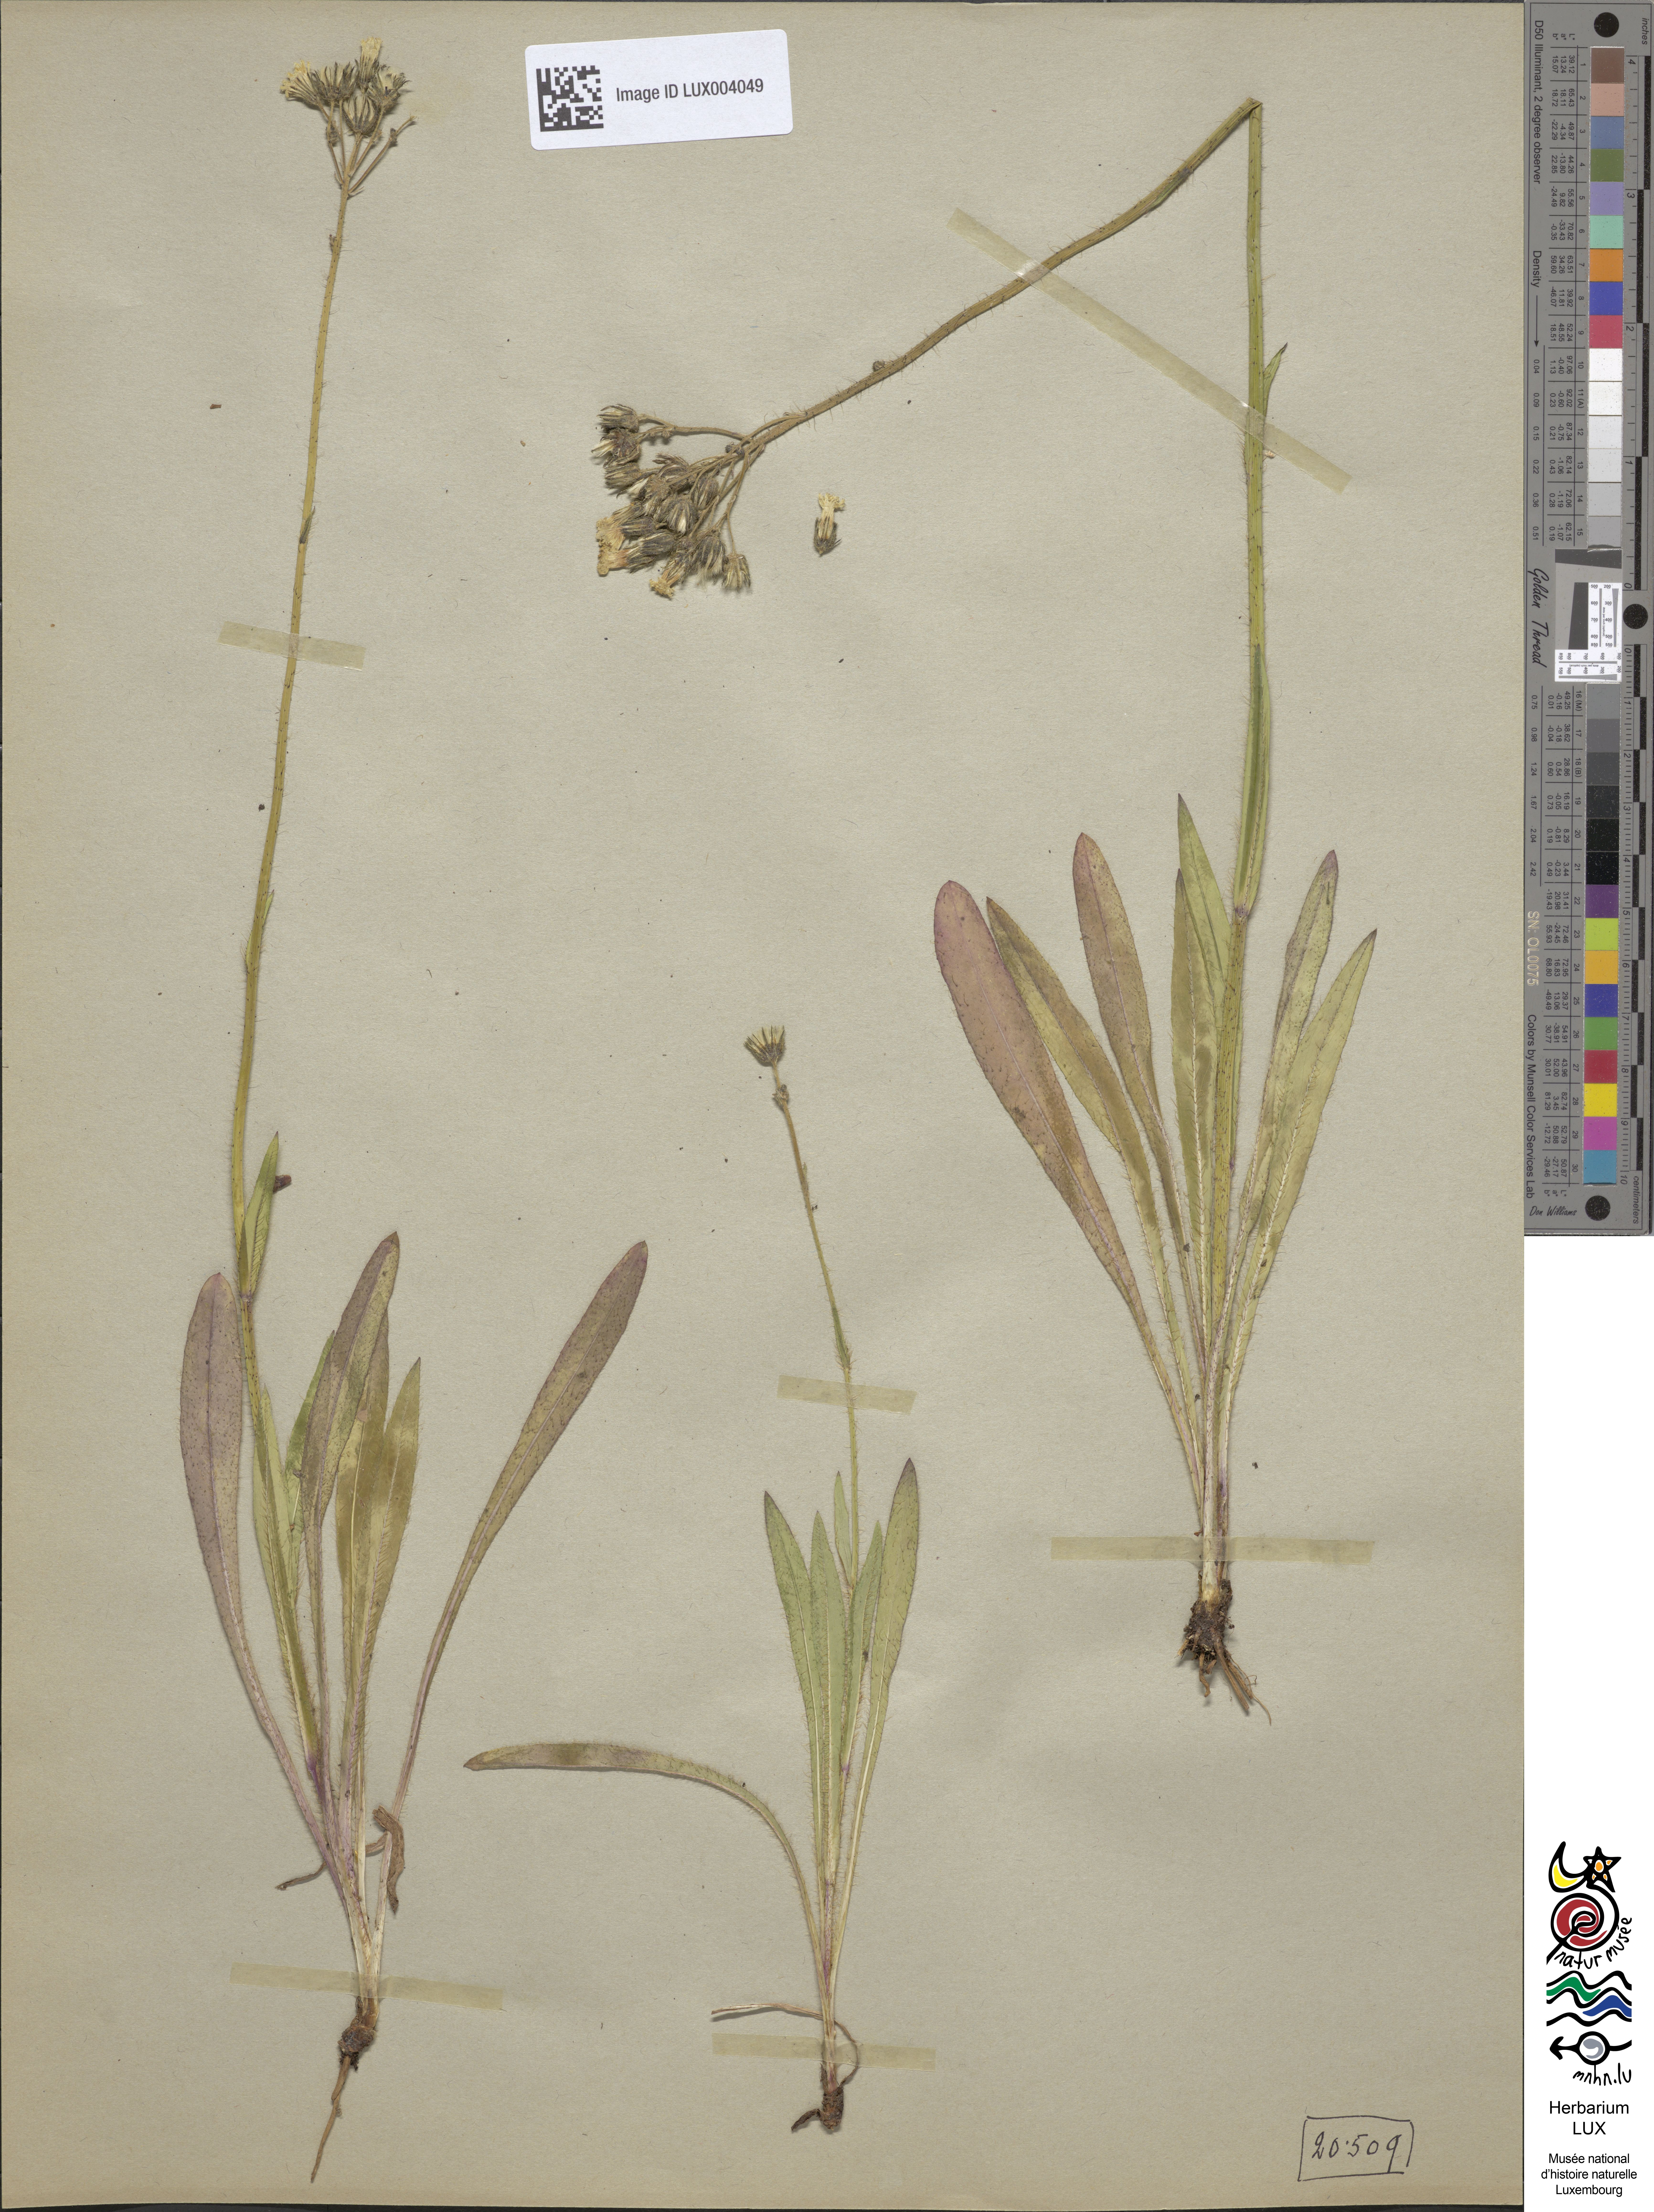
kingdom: Plantae
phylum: Tracheophyta
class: Magnoliopsida
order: Asterales
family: Asteraceae
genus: Pilosella
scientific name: Pilosella piloselloides
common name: Glaucous king-devil
